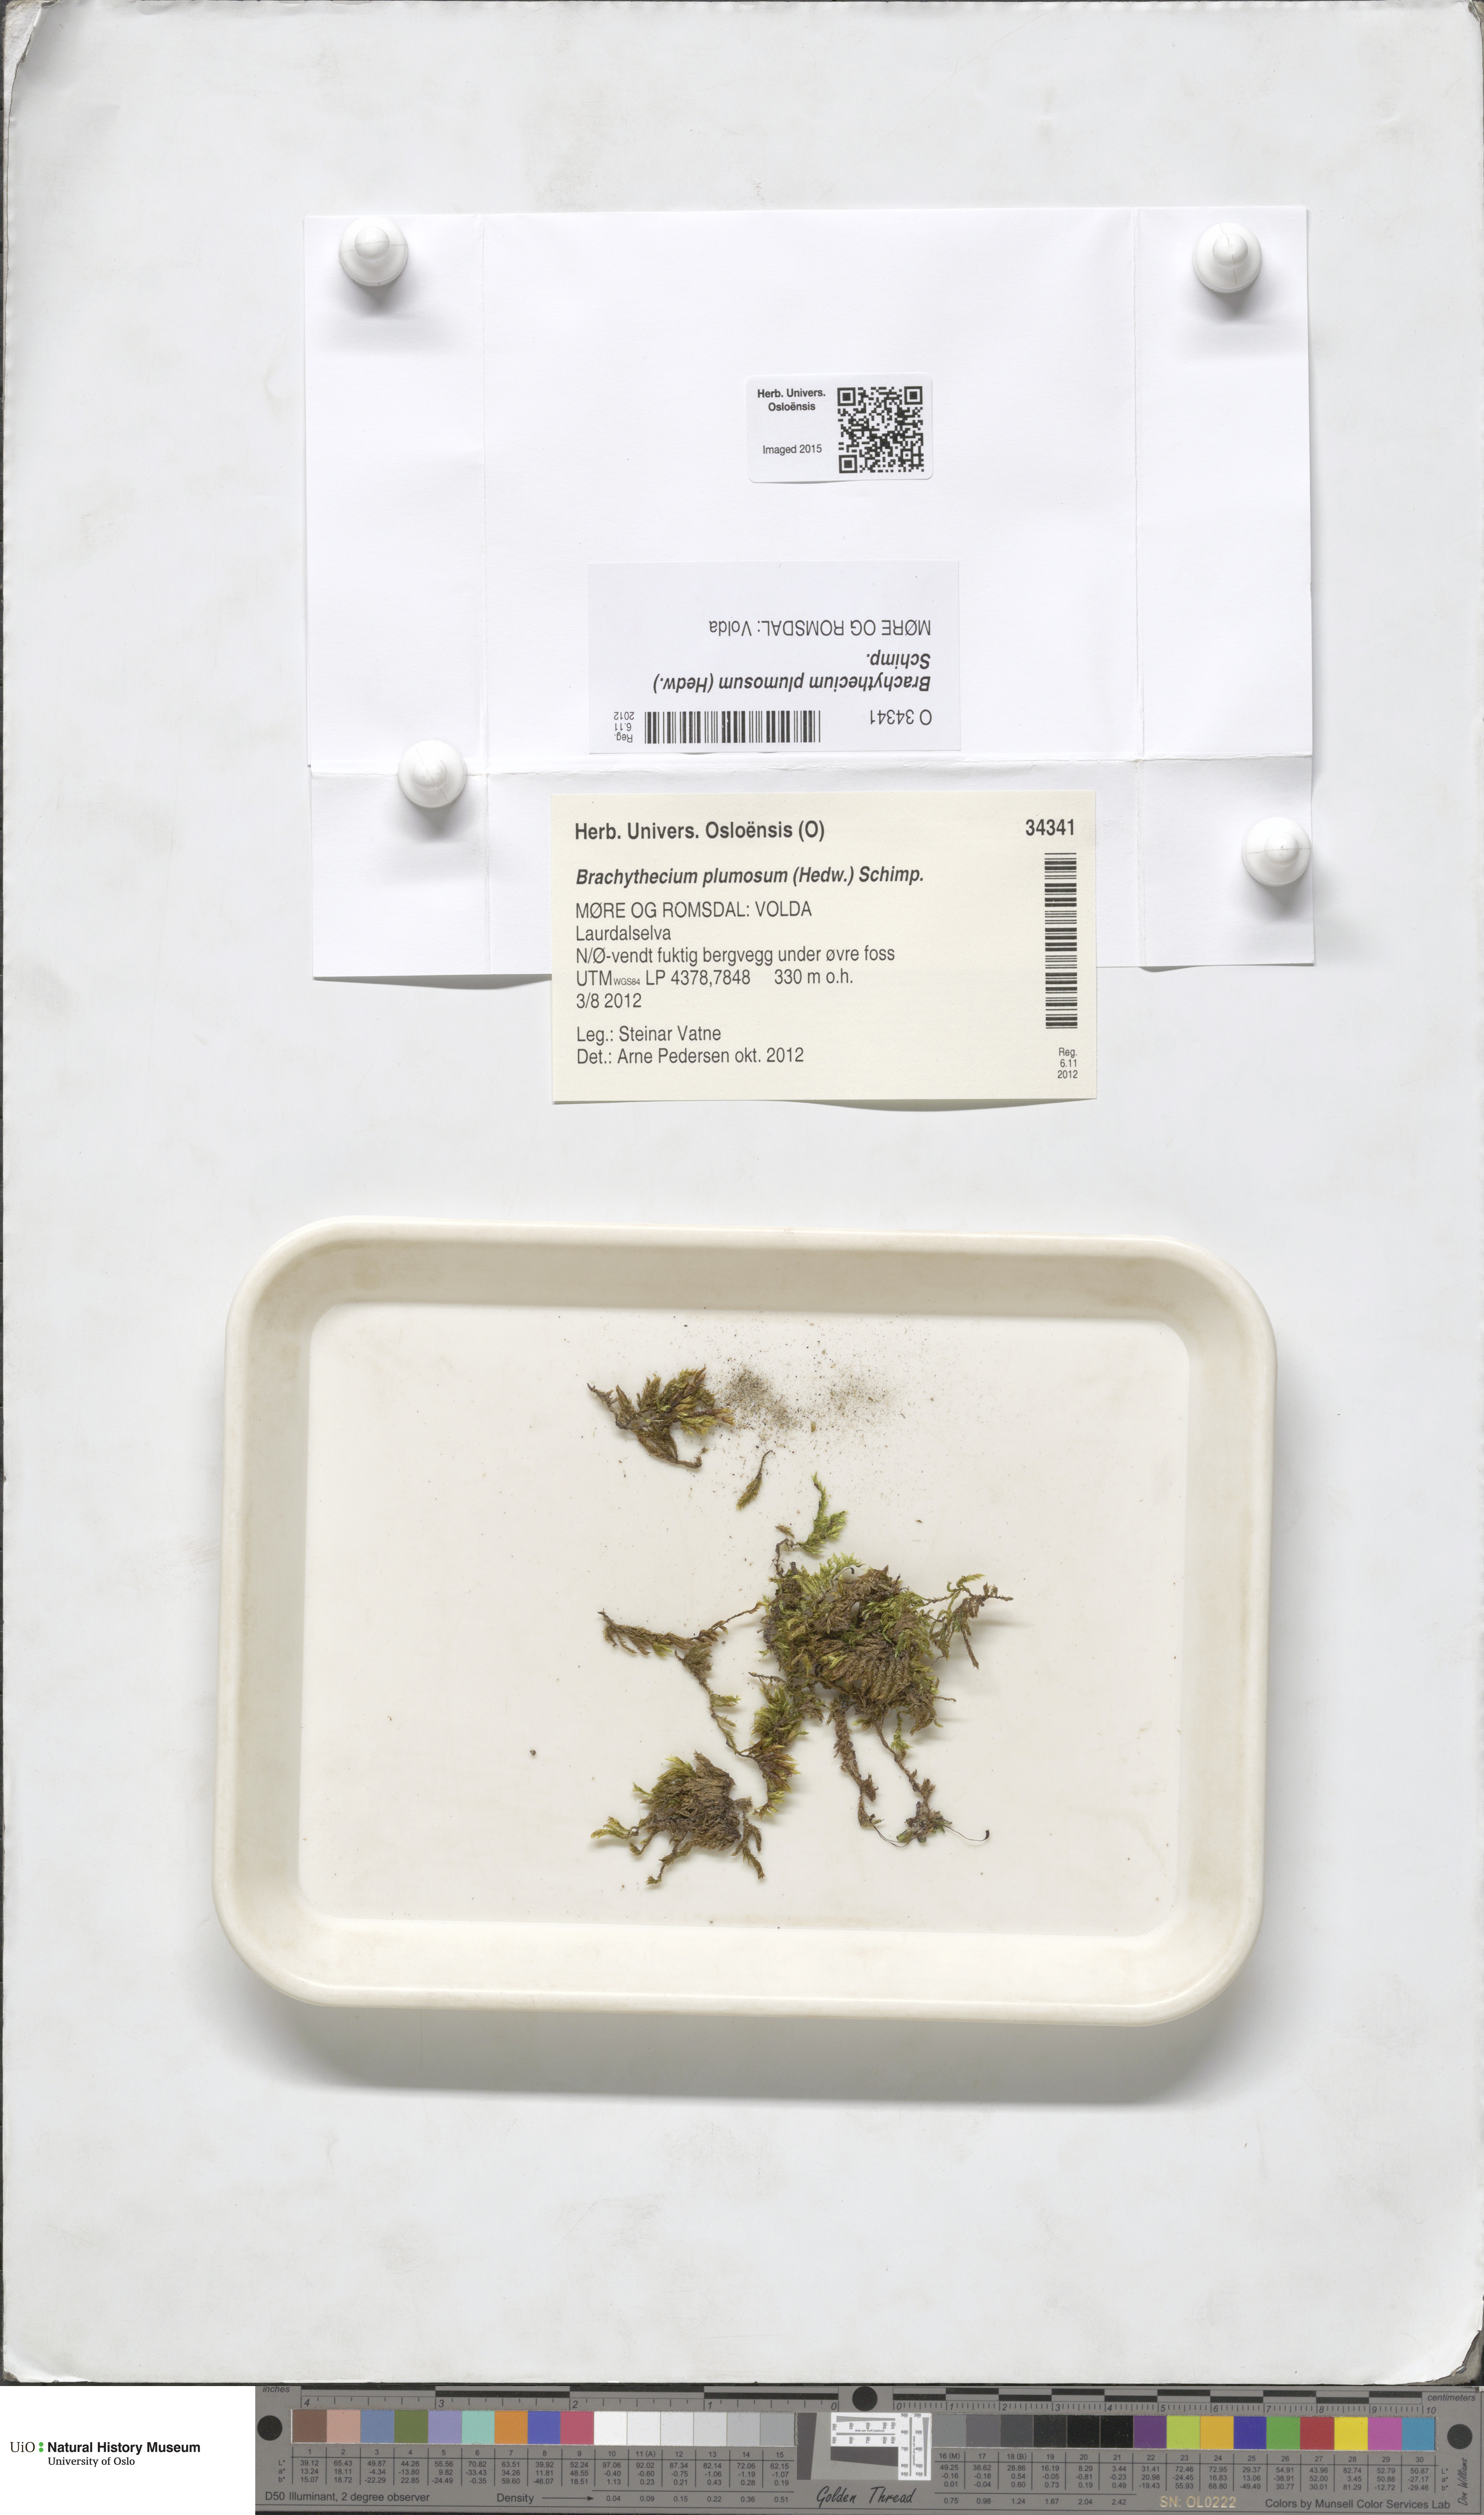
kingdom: Plantae
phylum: Bryophyta
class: Bryopsida
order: Hypnales
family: Brachytheciaceae
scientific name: Brachytheciaceae
